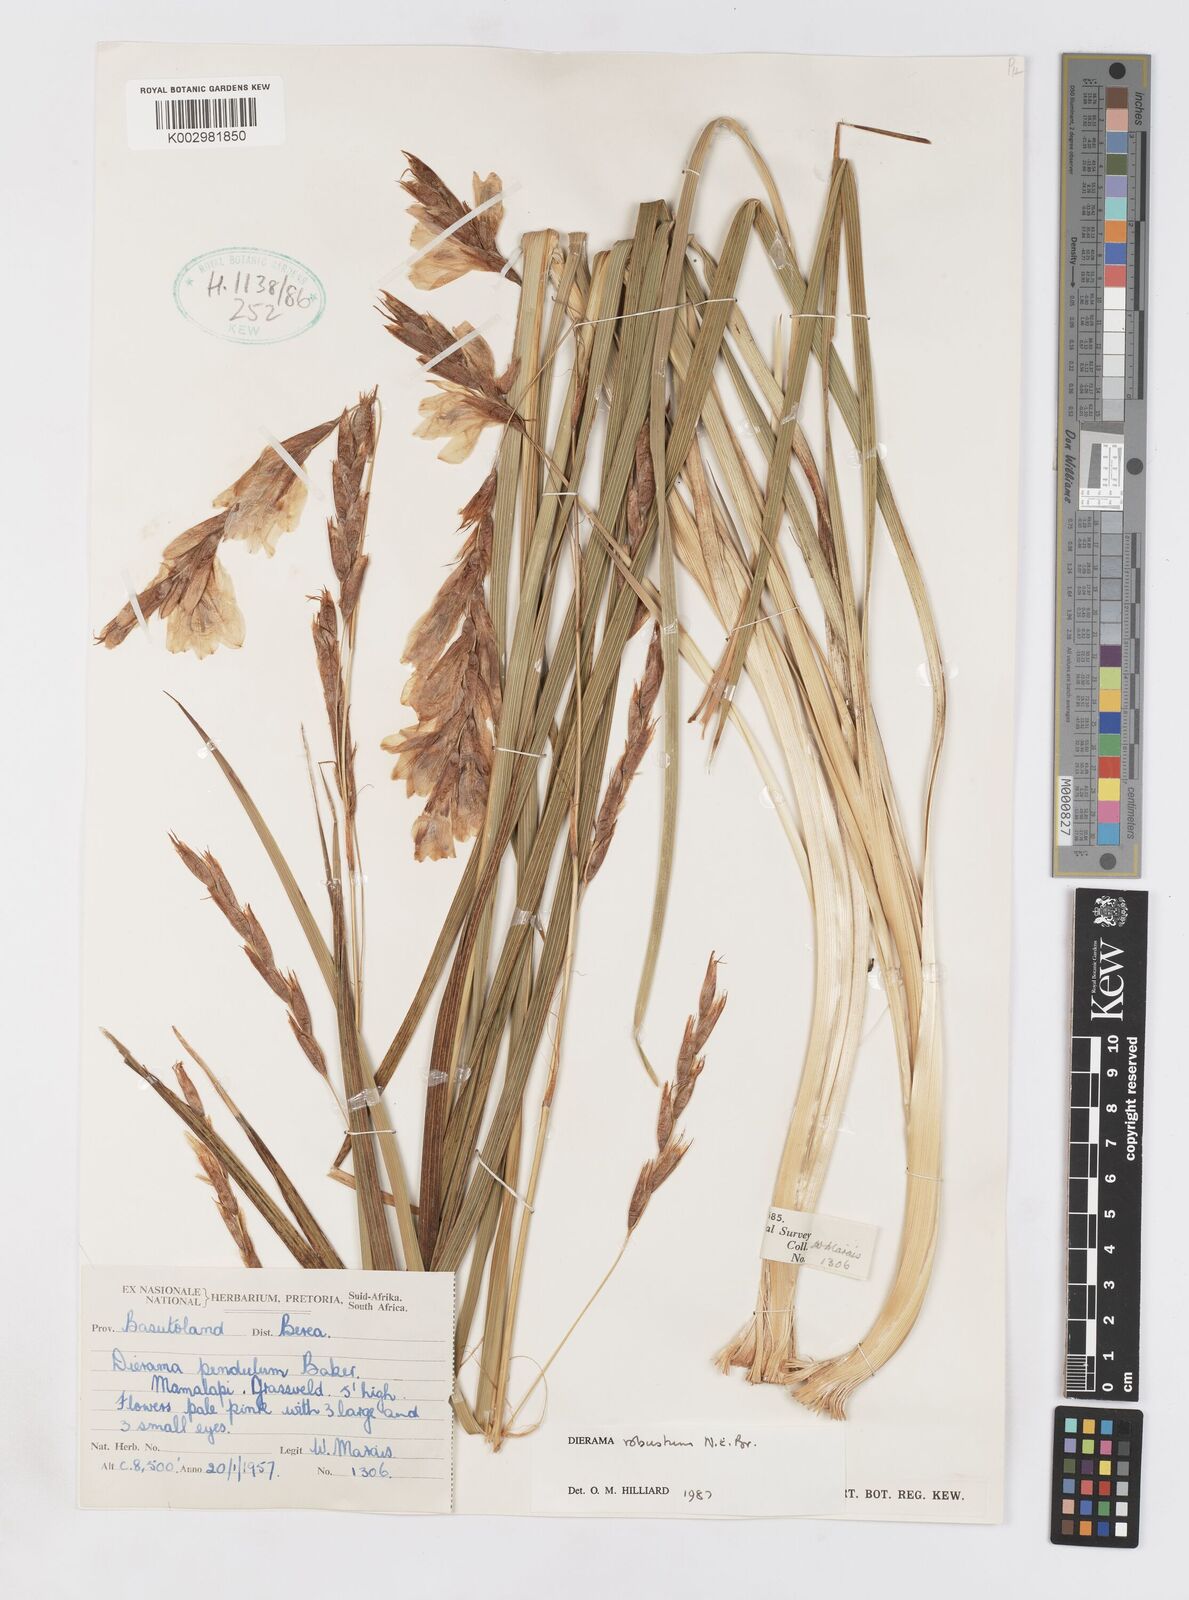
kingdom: Plantae
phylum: Tracheophyta
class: Liliopsida
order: Asparagales
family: Iridaceae
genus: Dierama
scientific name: Dierama robustum
